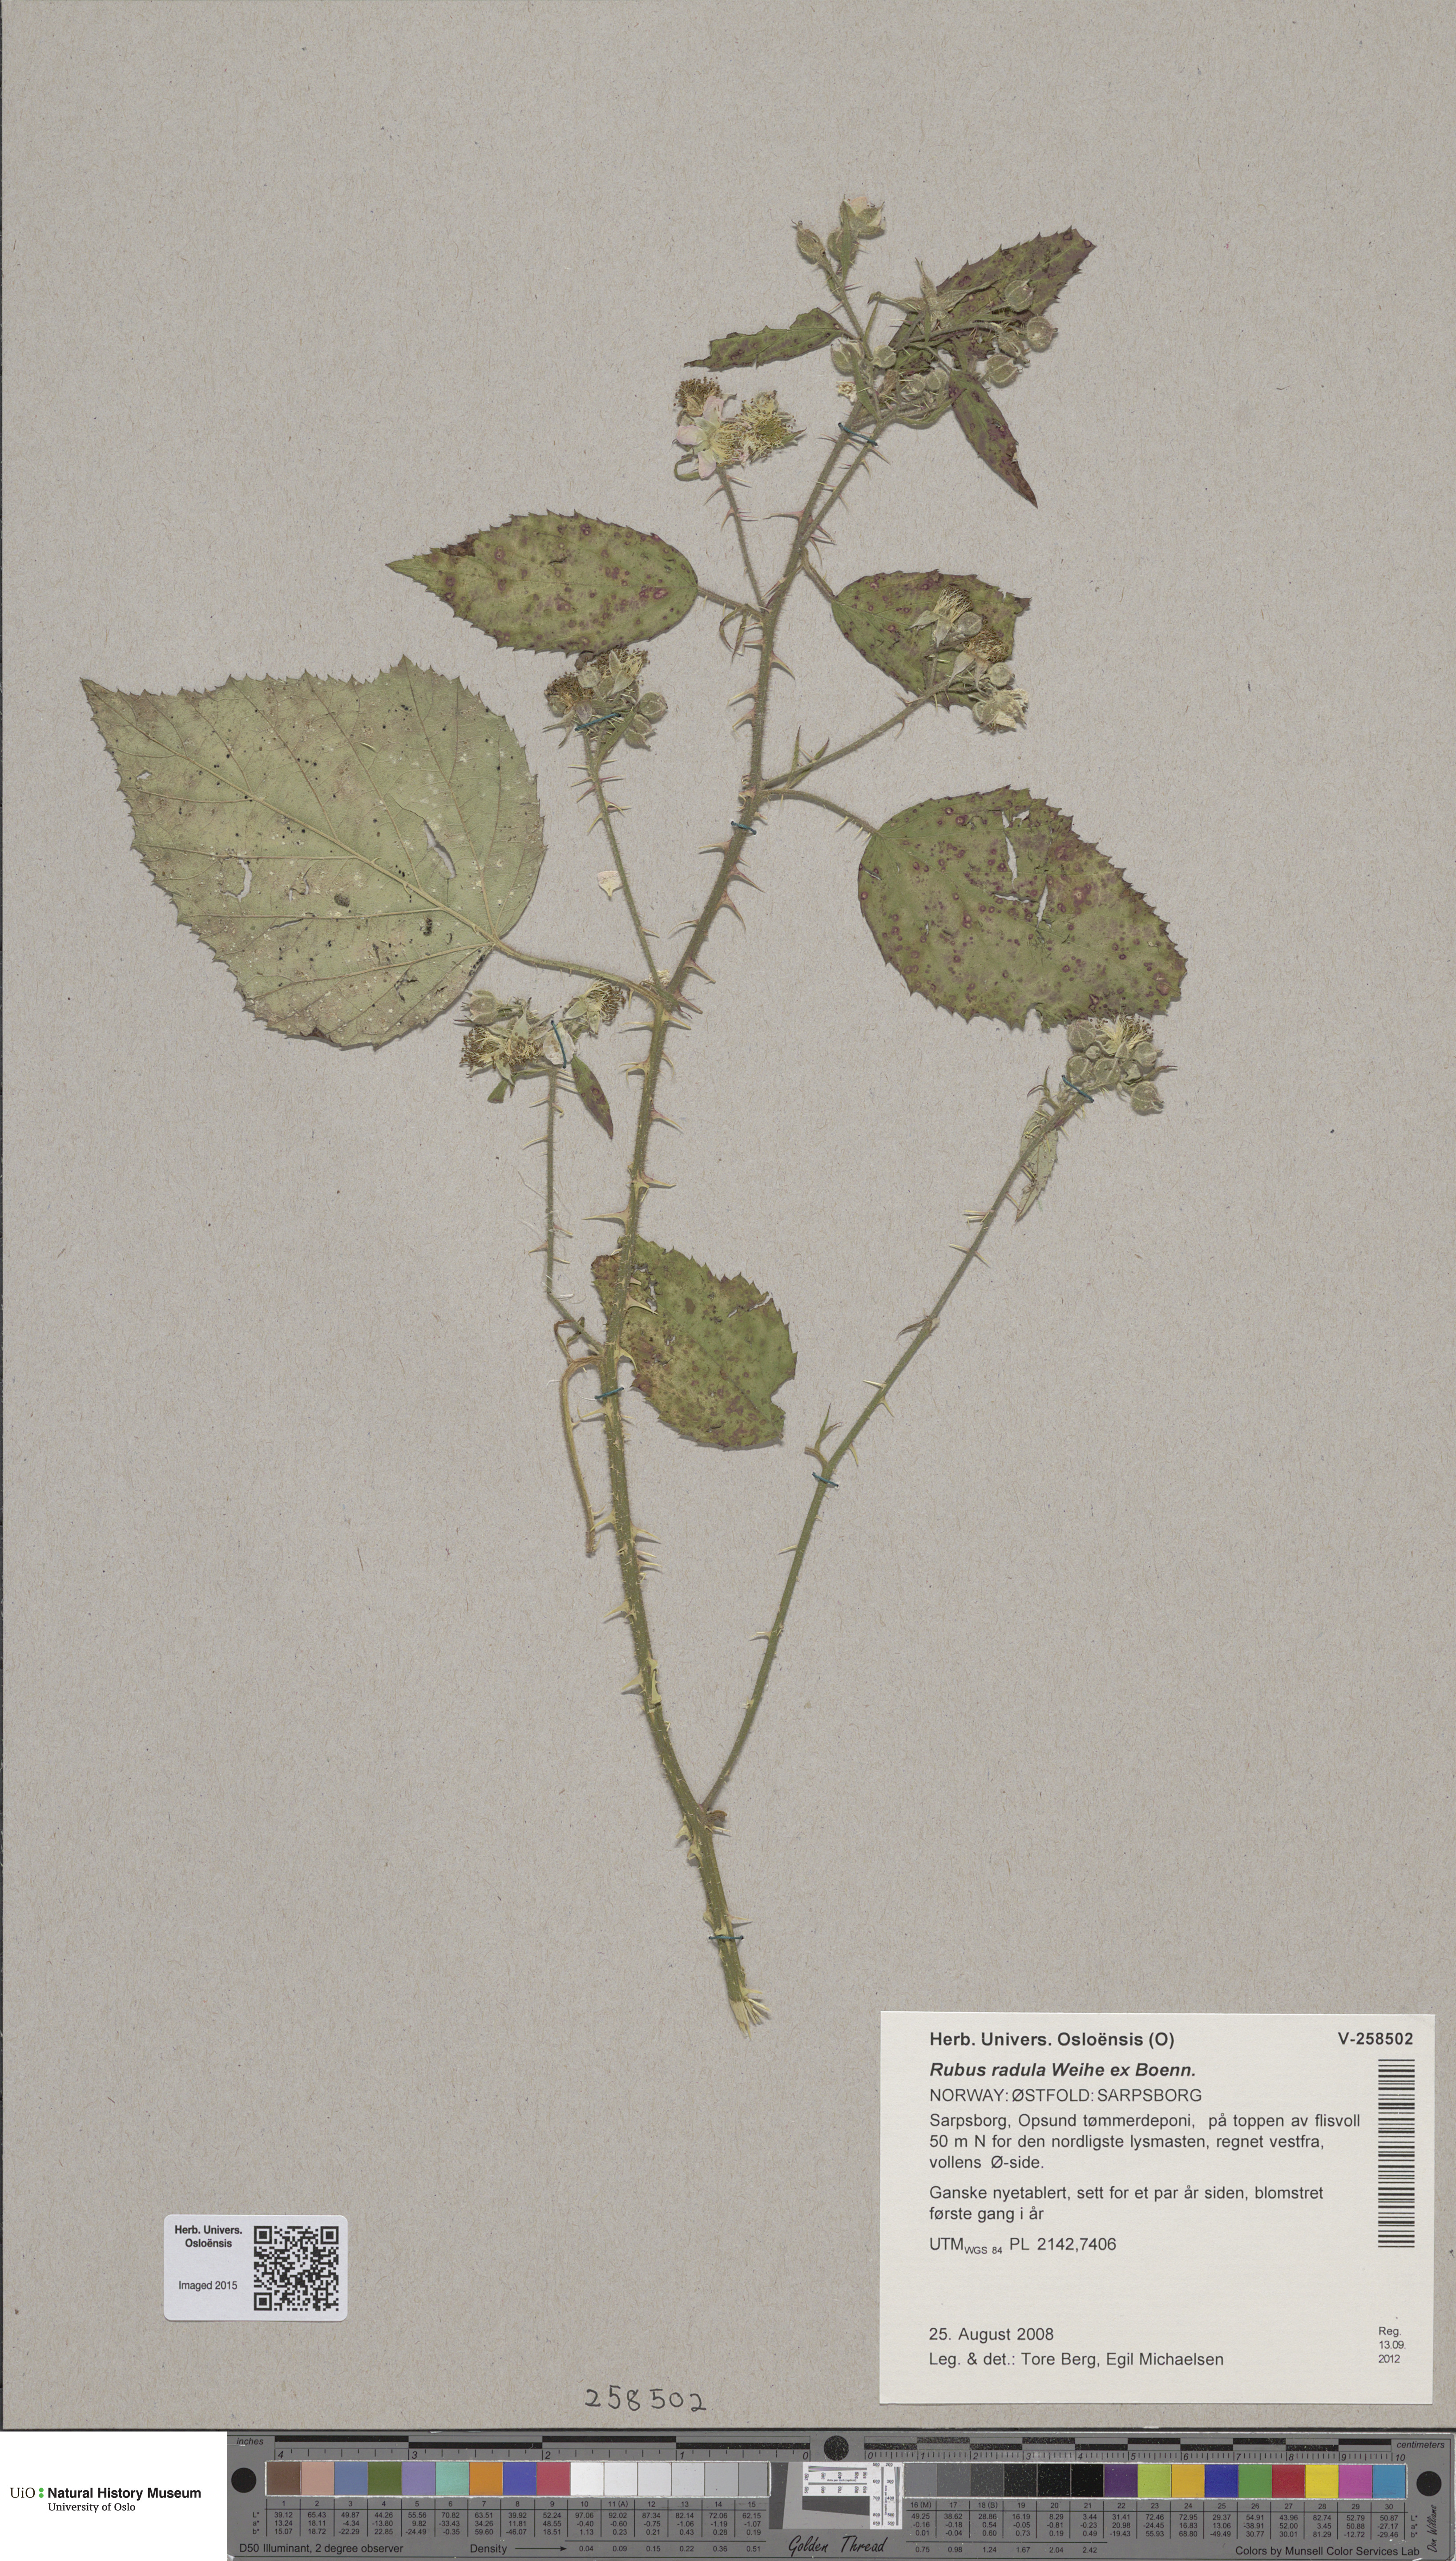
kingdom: Plantae
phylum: Tracheophyta
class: Magnoliopsida
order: Rosales
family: Rosaceae
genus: Rubus
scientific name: Rubus radula
